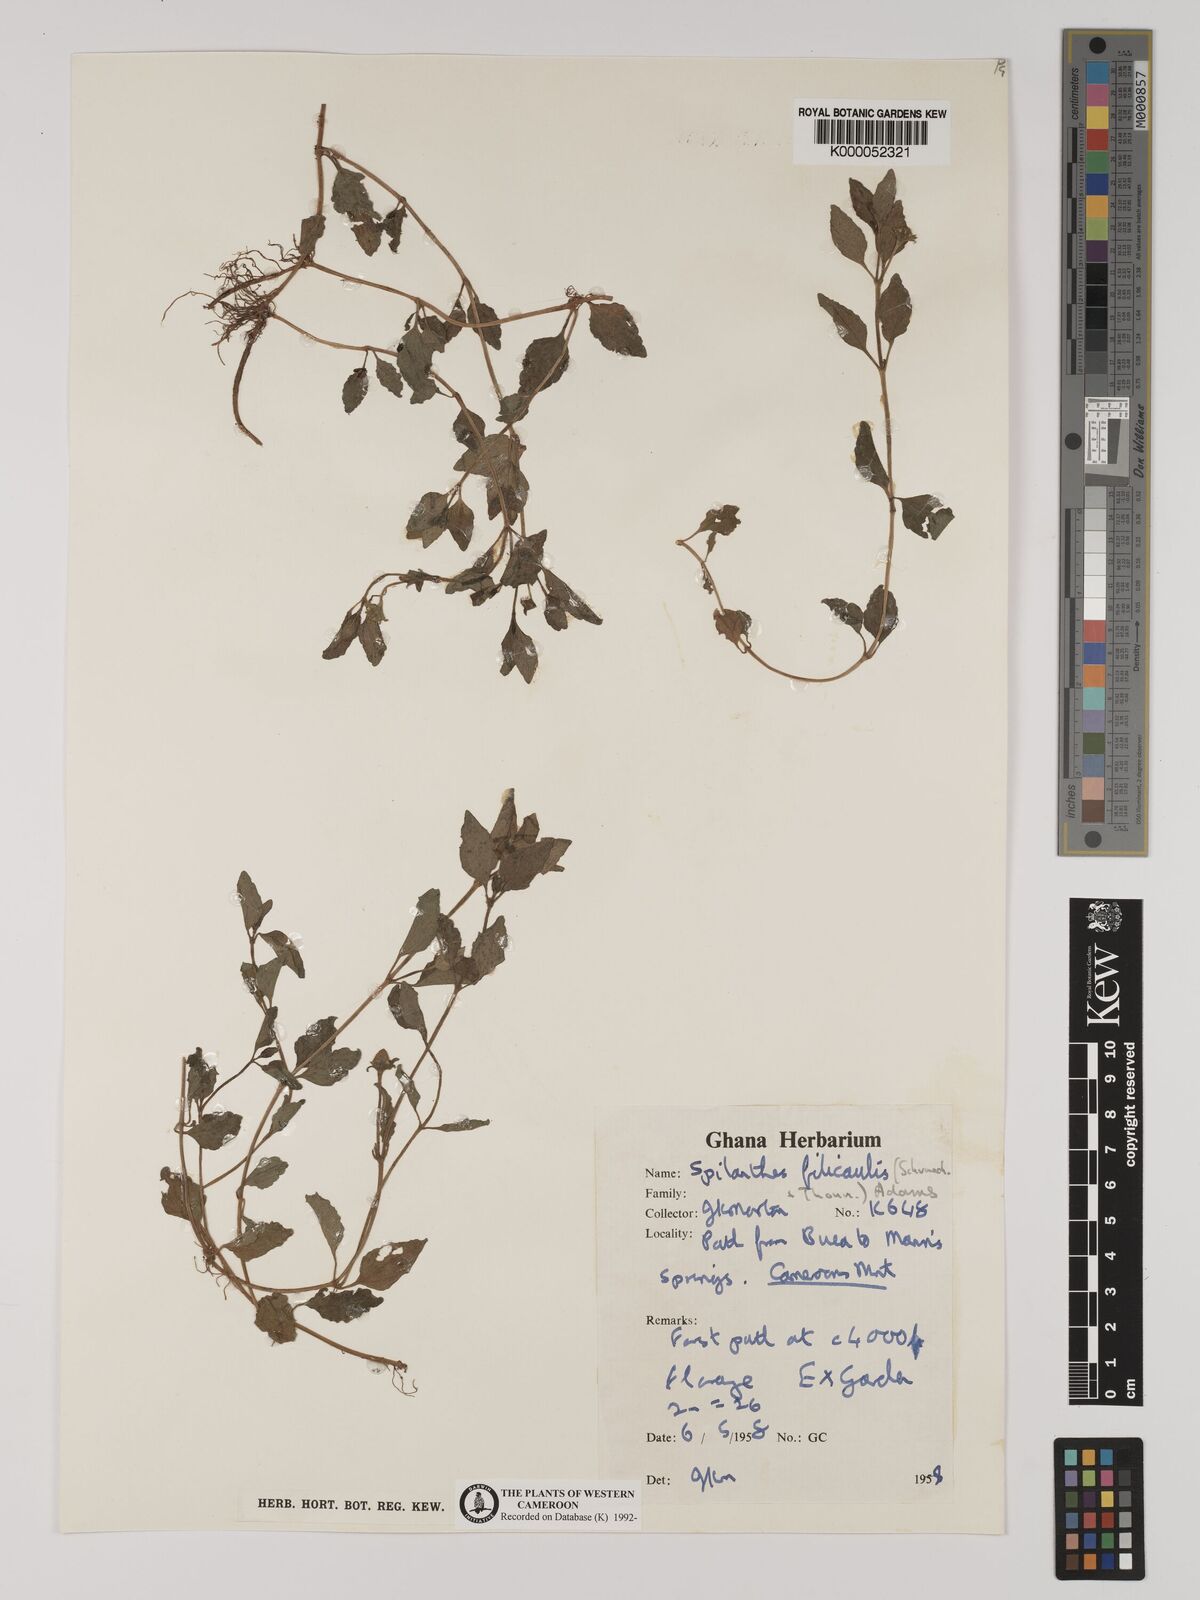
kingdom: Plantae
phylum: Tracheophyta
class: Magnoliopsida
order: Asterales
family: Asteraceae
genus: Acmella
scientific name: Acmella caulirhiza
